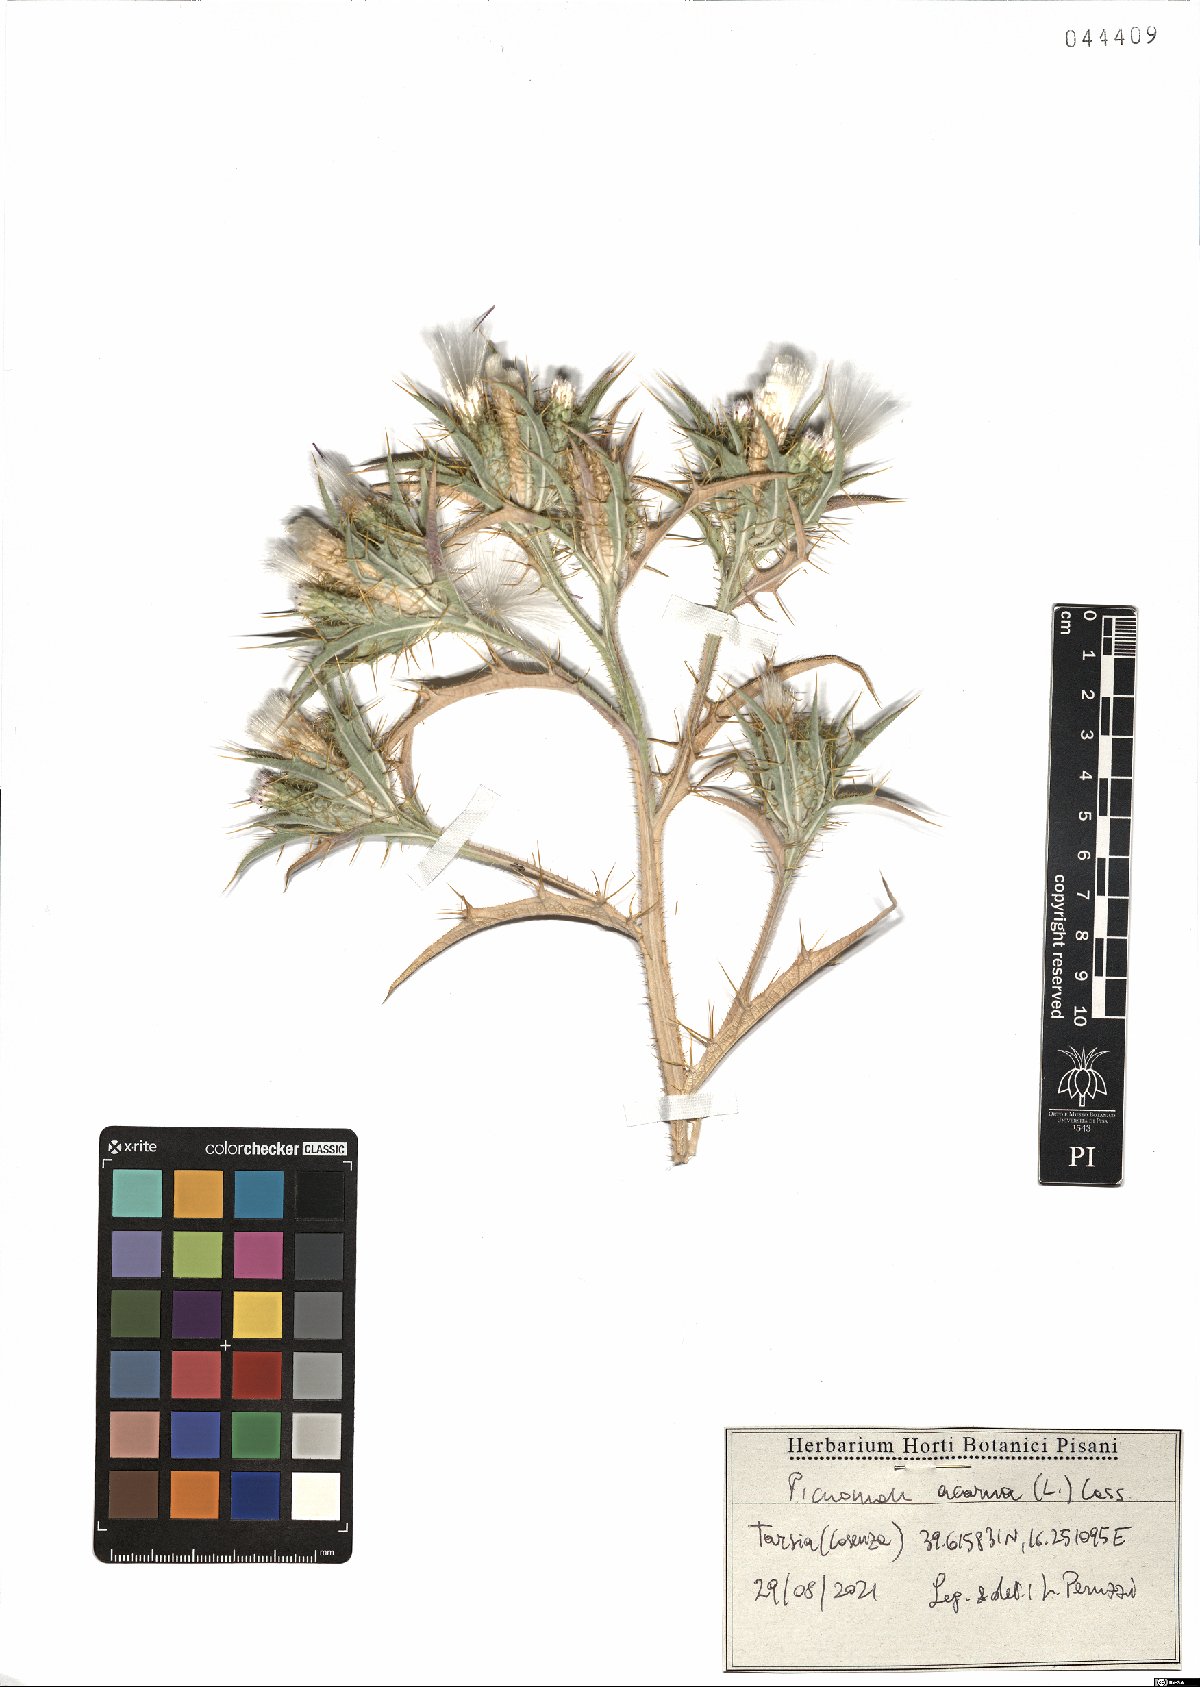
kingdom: Plantae
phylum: Tracheophyta
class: Magnoliopsida
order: Asterales
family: Asteraceae
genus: Picnomon
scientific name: Picnomon acarna
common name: Soldier thistle
